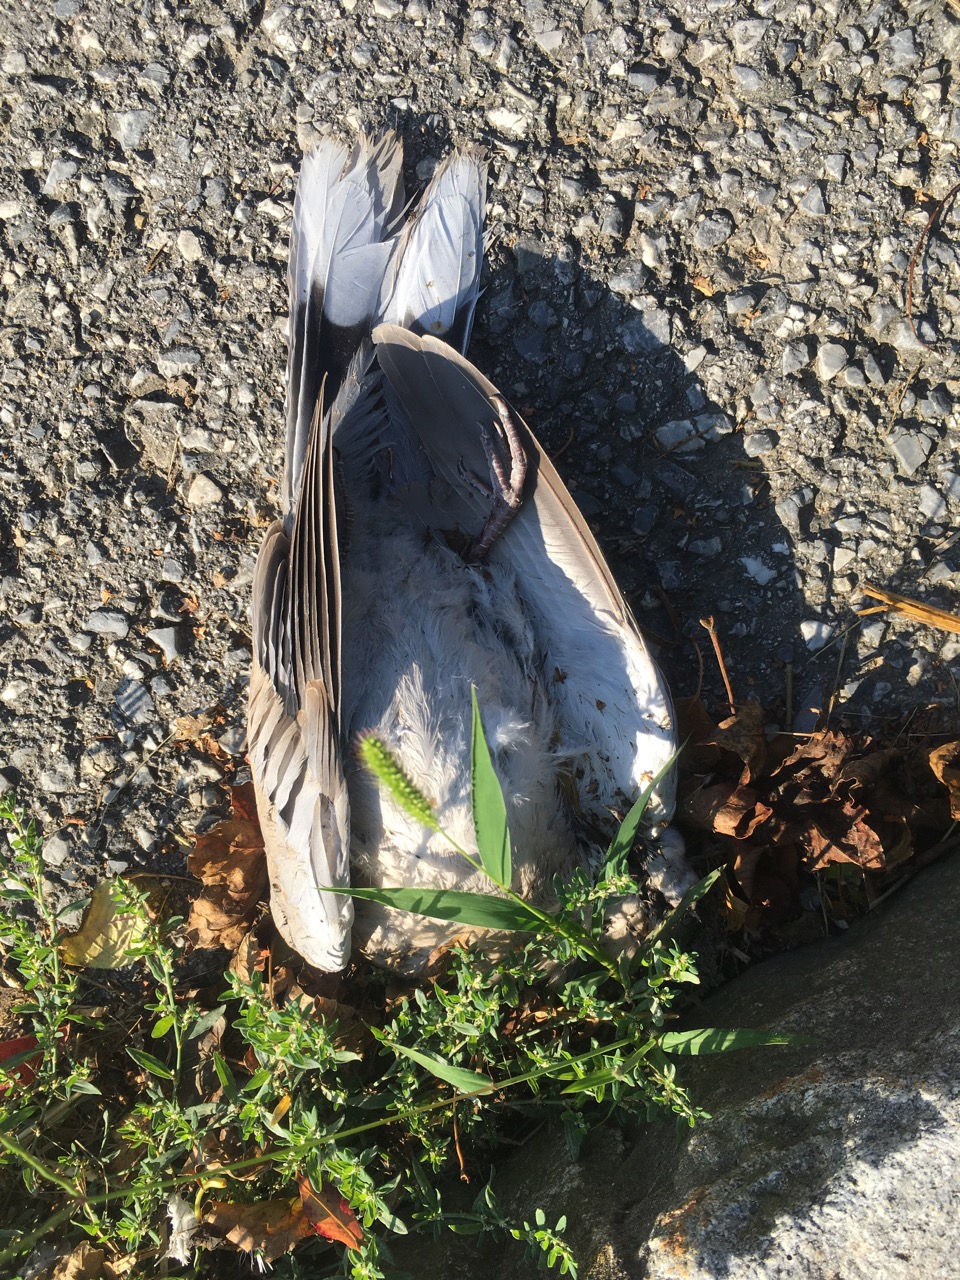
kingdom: Animalia
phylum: Chordata
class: Aves
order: Columbiformes
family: Columbidae
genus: Streptopelia
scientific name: Streptopelia decaocto
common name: Eurasian collared dove
